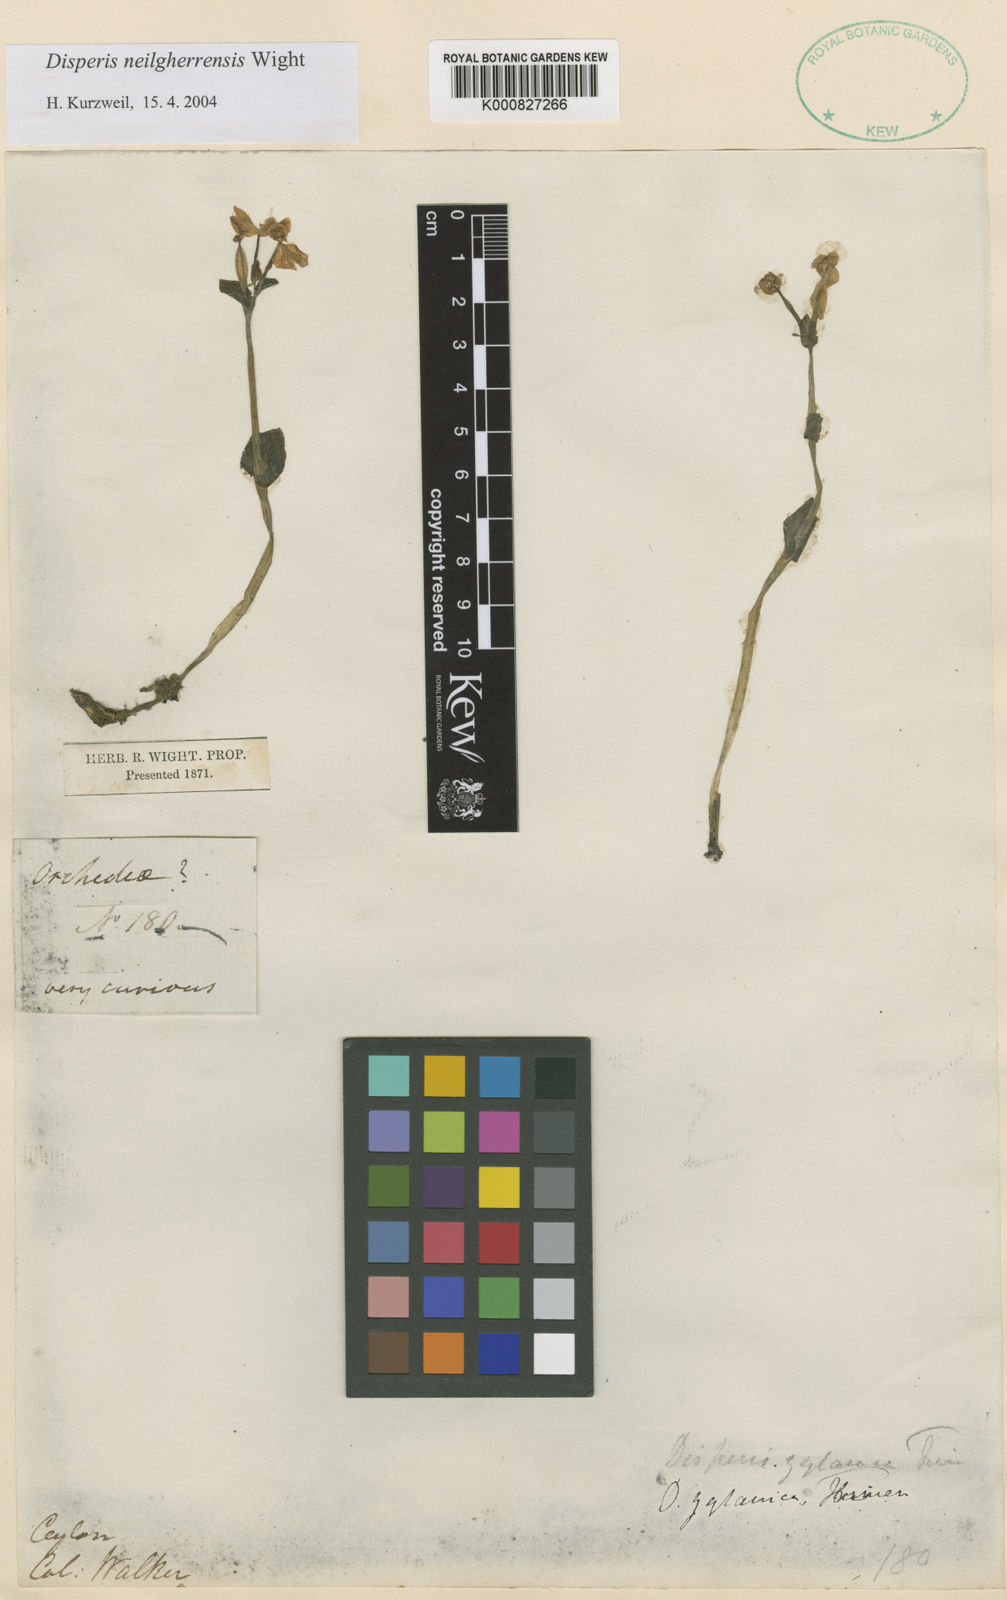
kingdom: Plantae
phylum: Tracheophyta
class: Liliopsida
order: Asparagales
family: Orchidaceae
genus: Disperis
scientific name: Disperis neilgherrensis
